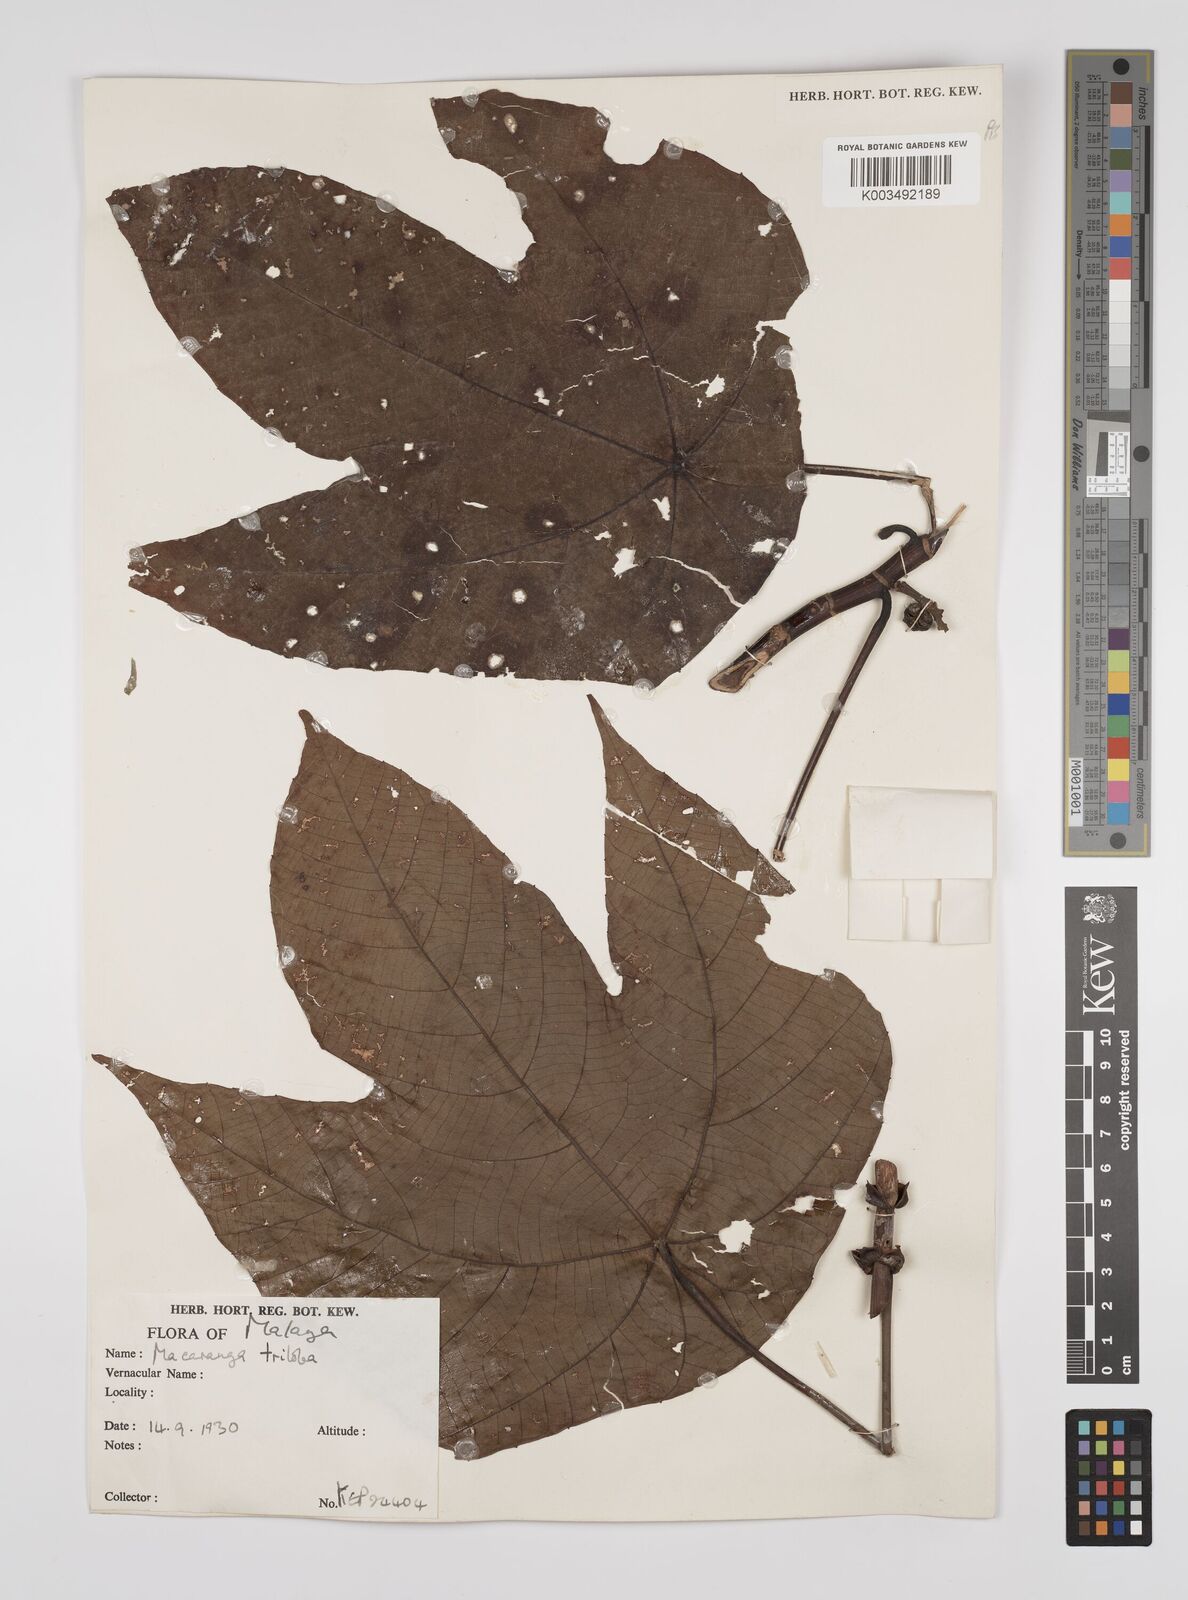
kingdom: Plantae
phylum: Tracheophyta
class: Magnoliopsida
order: Malpighiales
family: Euphorbiaceae
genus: Macaranga
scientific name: Macaranga triloba
